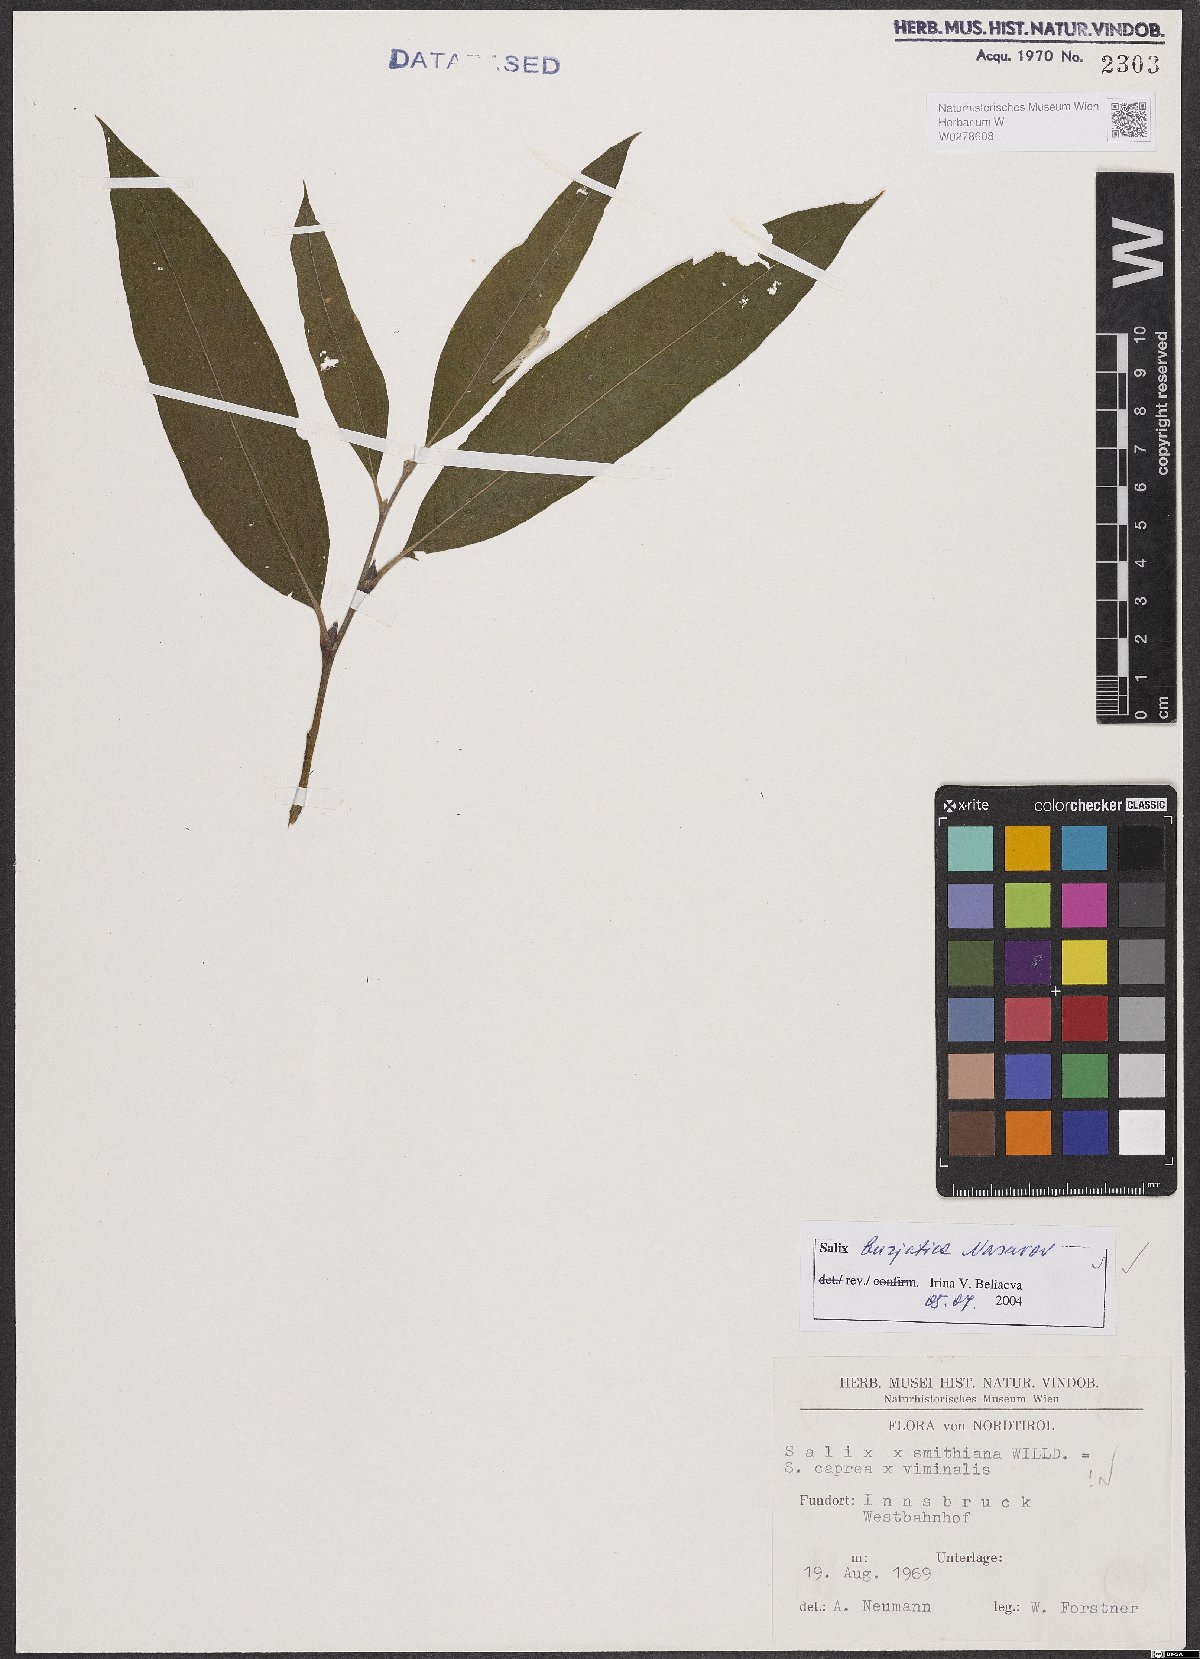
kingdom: Plantae
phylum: Tracheophyta
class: Magnoliopsida
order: Malpighiales
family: Salicaceae
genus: Salix
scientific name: Salix gmelinii
